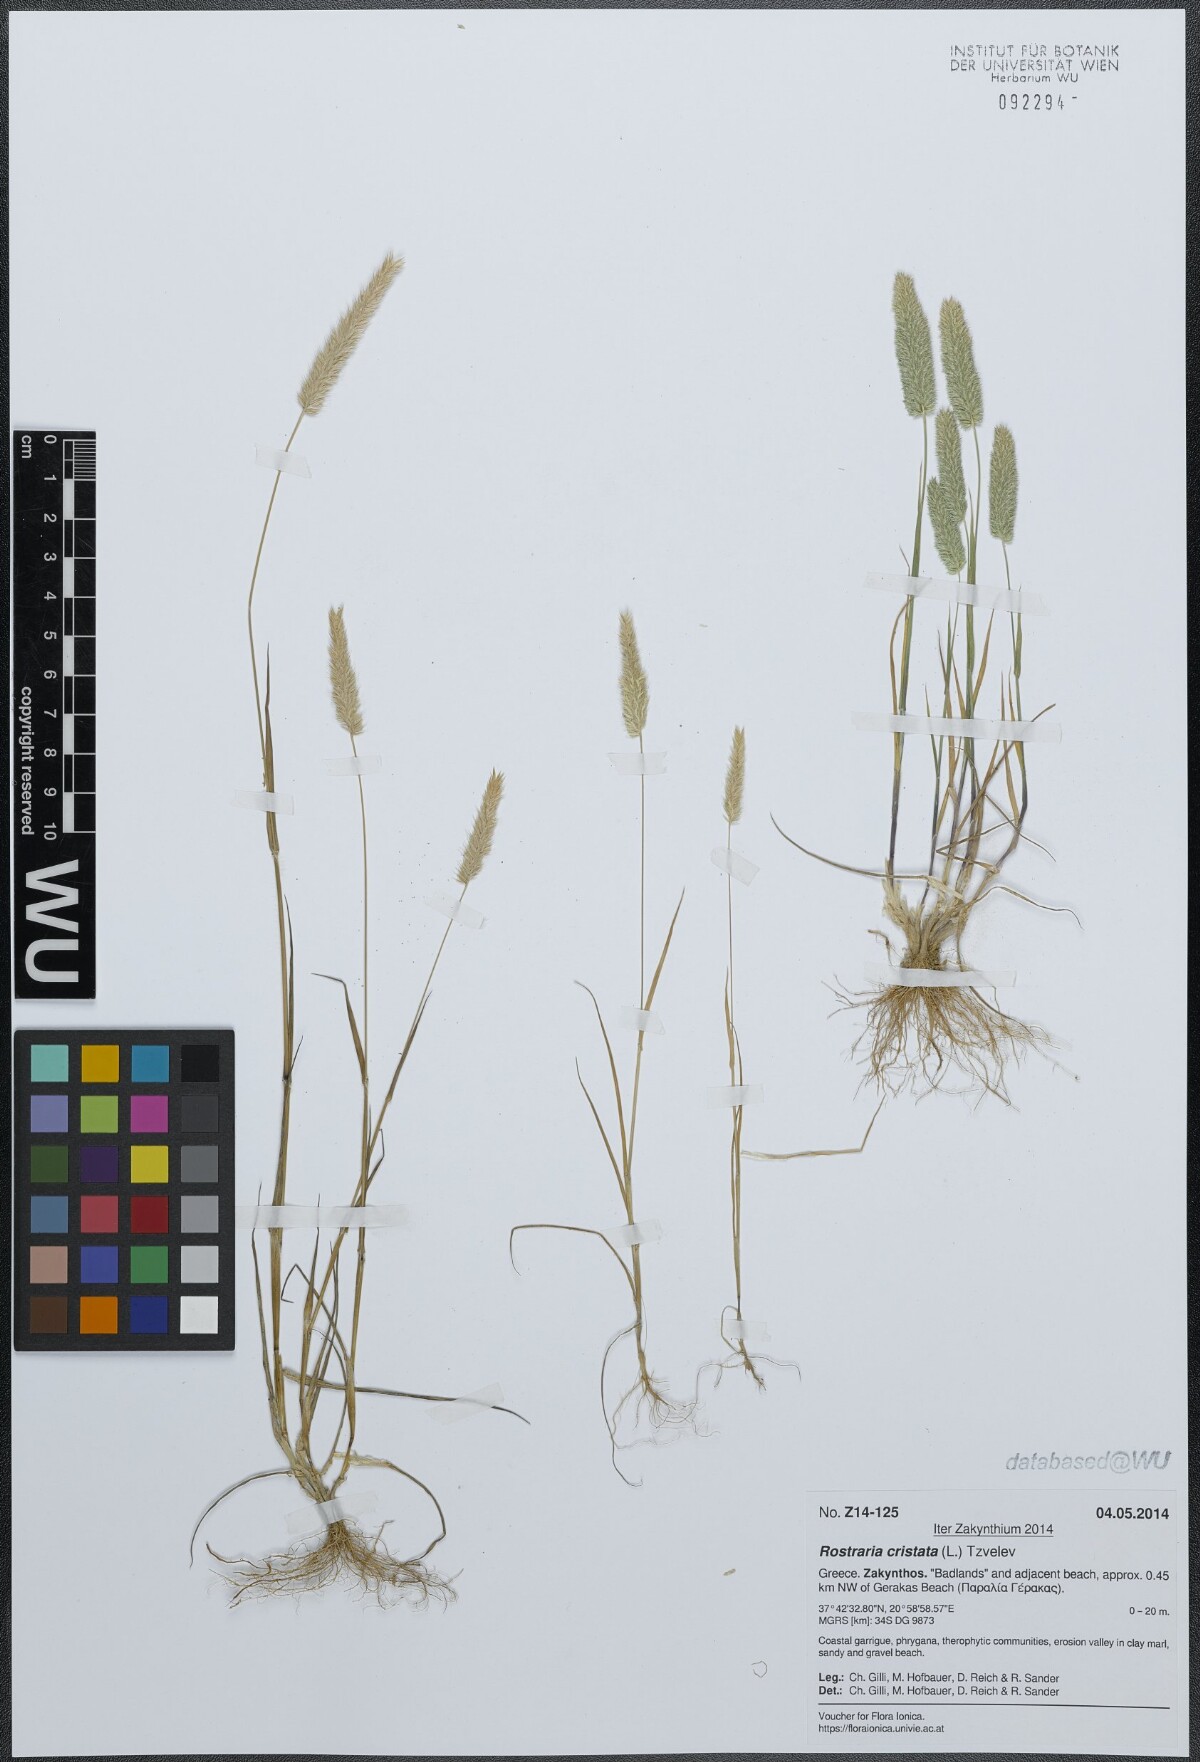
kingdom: Plantae
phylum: Tracheophyta
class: Liliopsida
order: Poales
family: Poaceae
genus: Rostraria
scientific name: Rostraria cristata
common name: Mediterranean hair-grass
